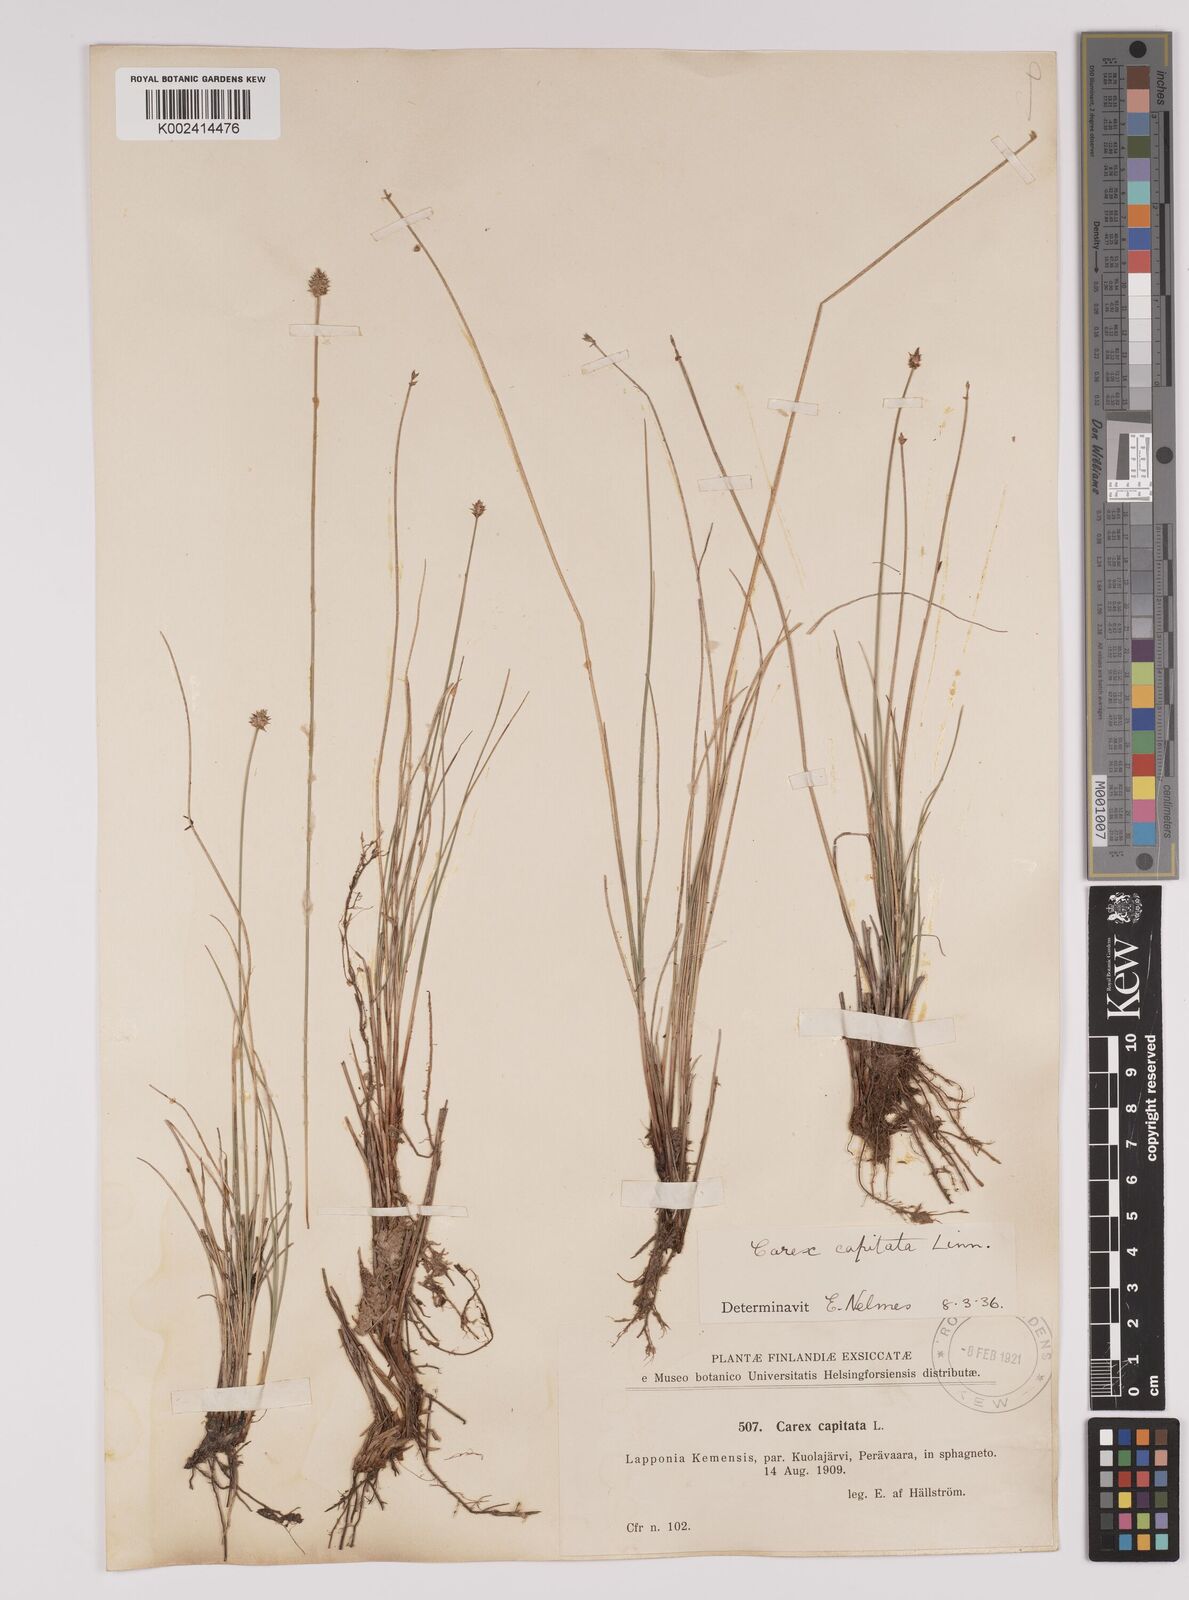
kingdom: Plantae
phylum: Tracheophyta
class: Liliopsida
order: Poales
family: Cyperaceae
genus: Carex
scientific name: Carex capitata
